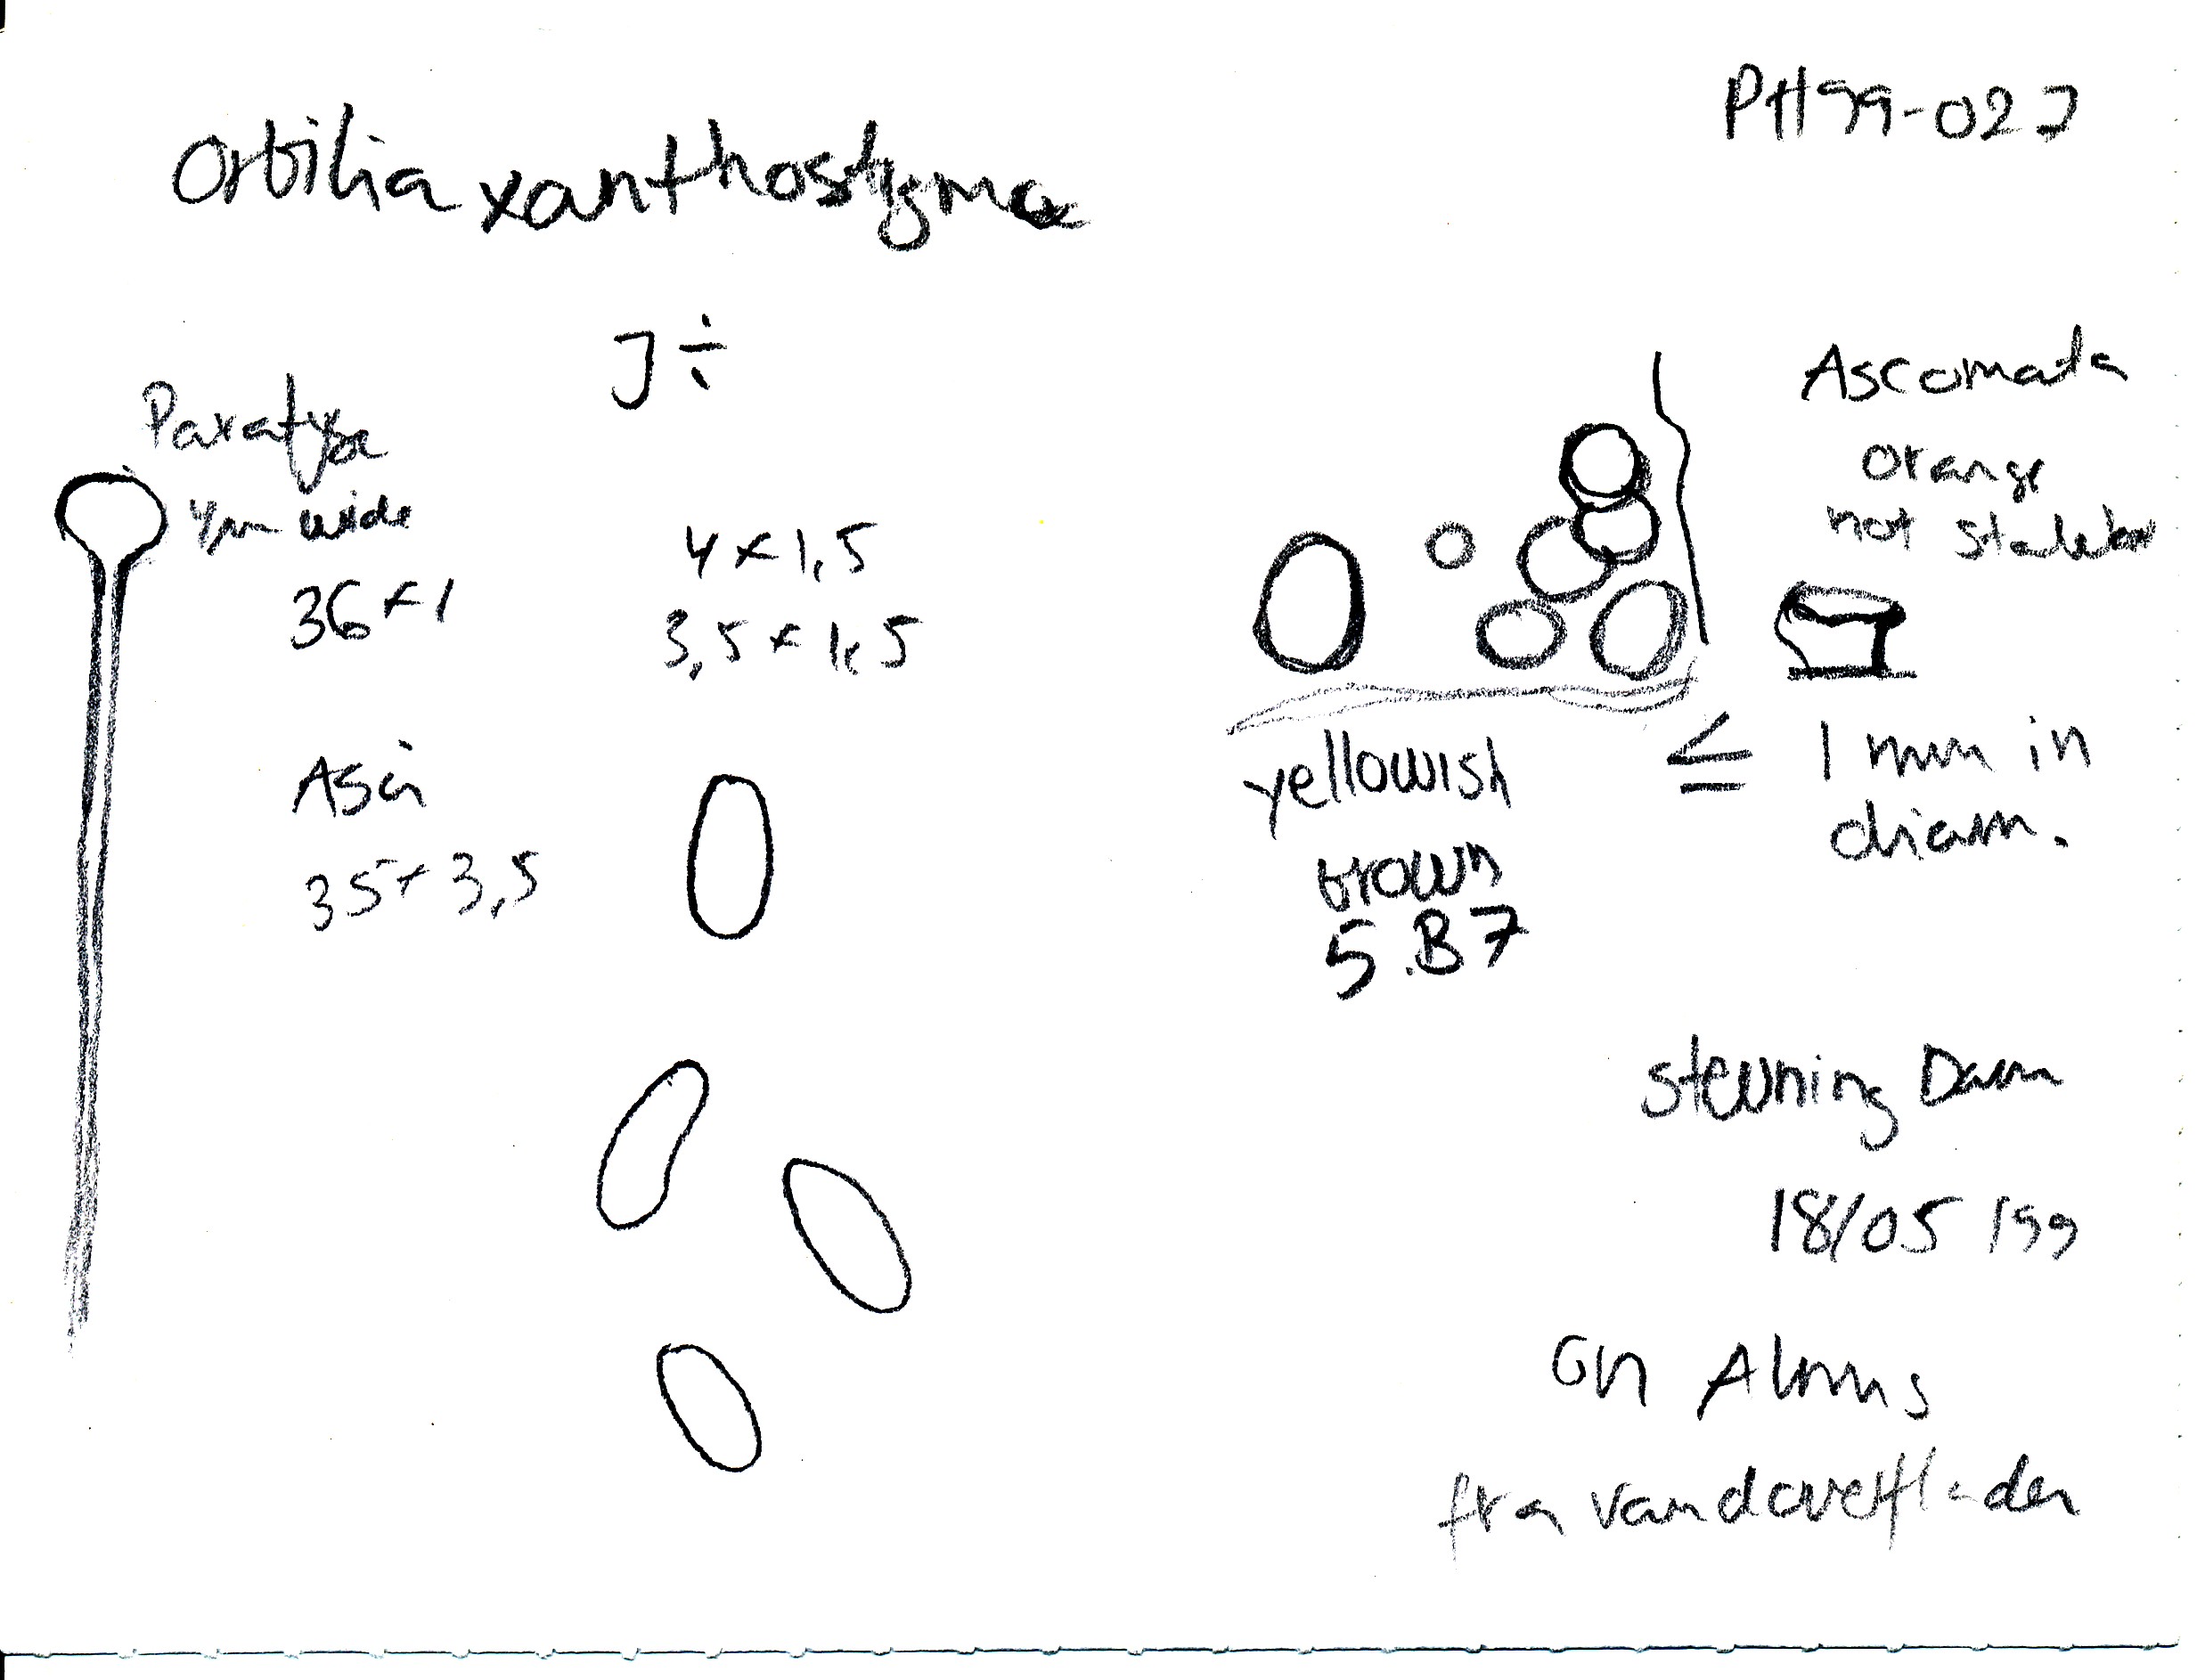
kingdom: Fungi
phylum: Ascomycota
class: Orbiliomycetes
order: Orbiliales
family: Orbiliaceae
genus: Orbilia
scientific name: Orbilia
